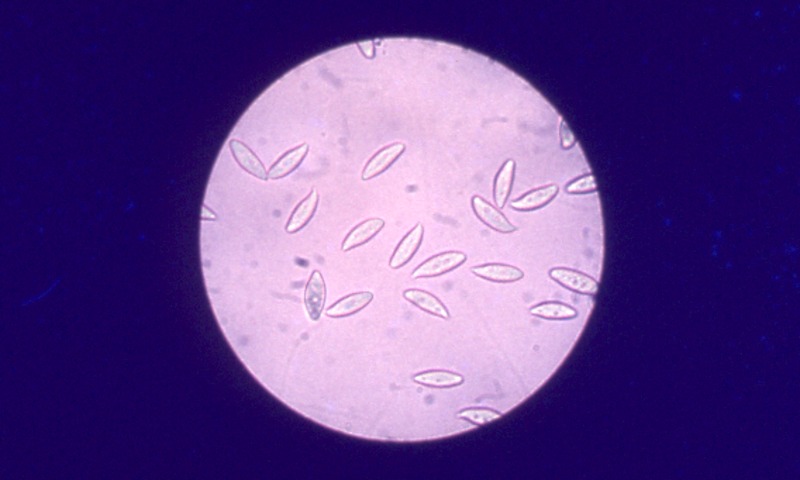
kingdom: Fungi
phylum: Basidiomycota
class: Agaricomycetes
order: Agaricales
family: Agaricaceae
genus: Lepiota
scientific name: Lepiota magnispora
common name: Yellowfoot dapperling
